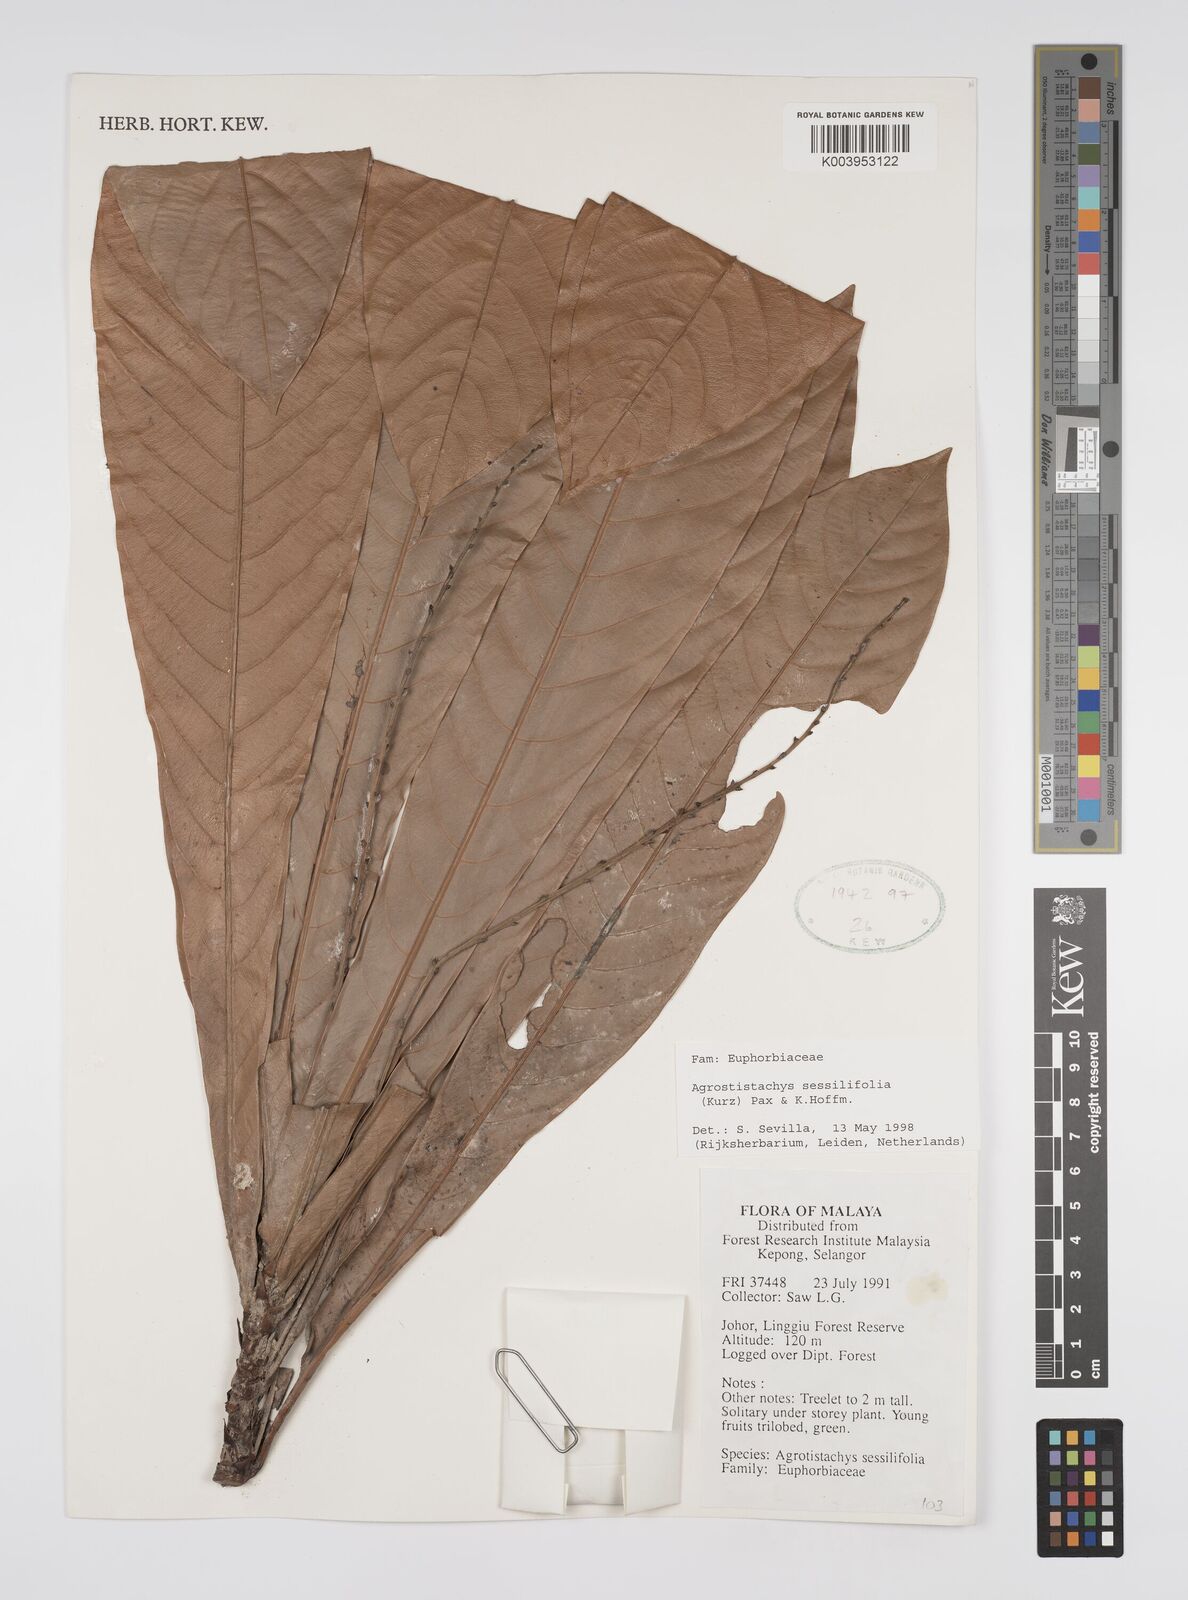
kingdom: Plantae
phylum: Tracheophyta
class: Magnoliopsida
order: Malpighiales
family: Euphorbiaceae
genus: Agrostistachys
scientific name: Agrostistachys sessilifolia
